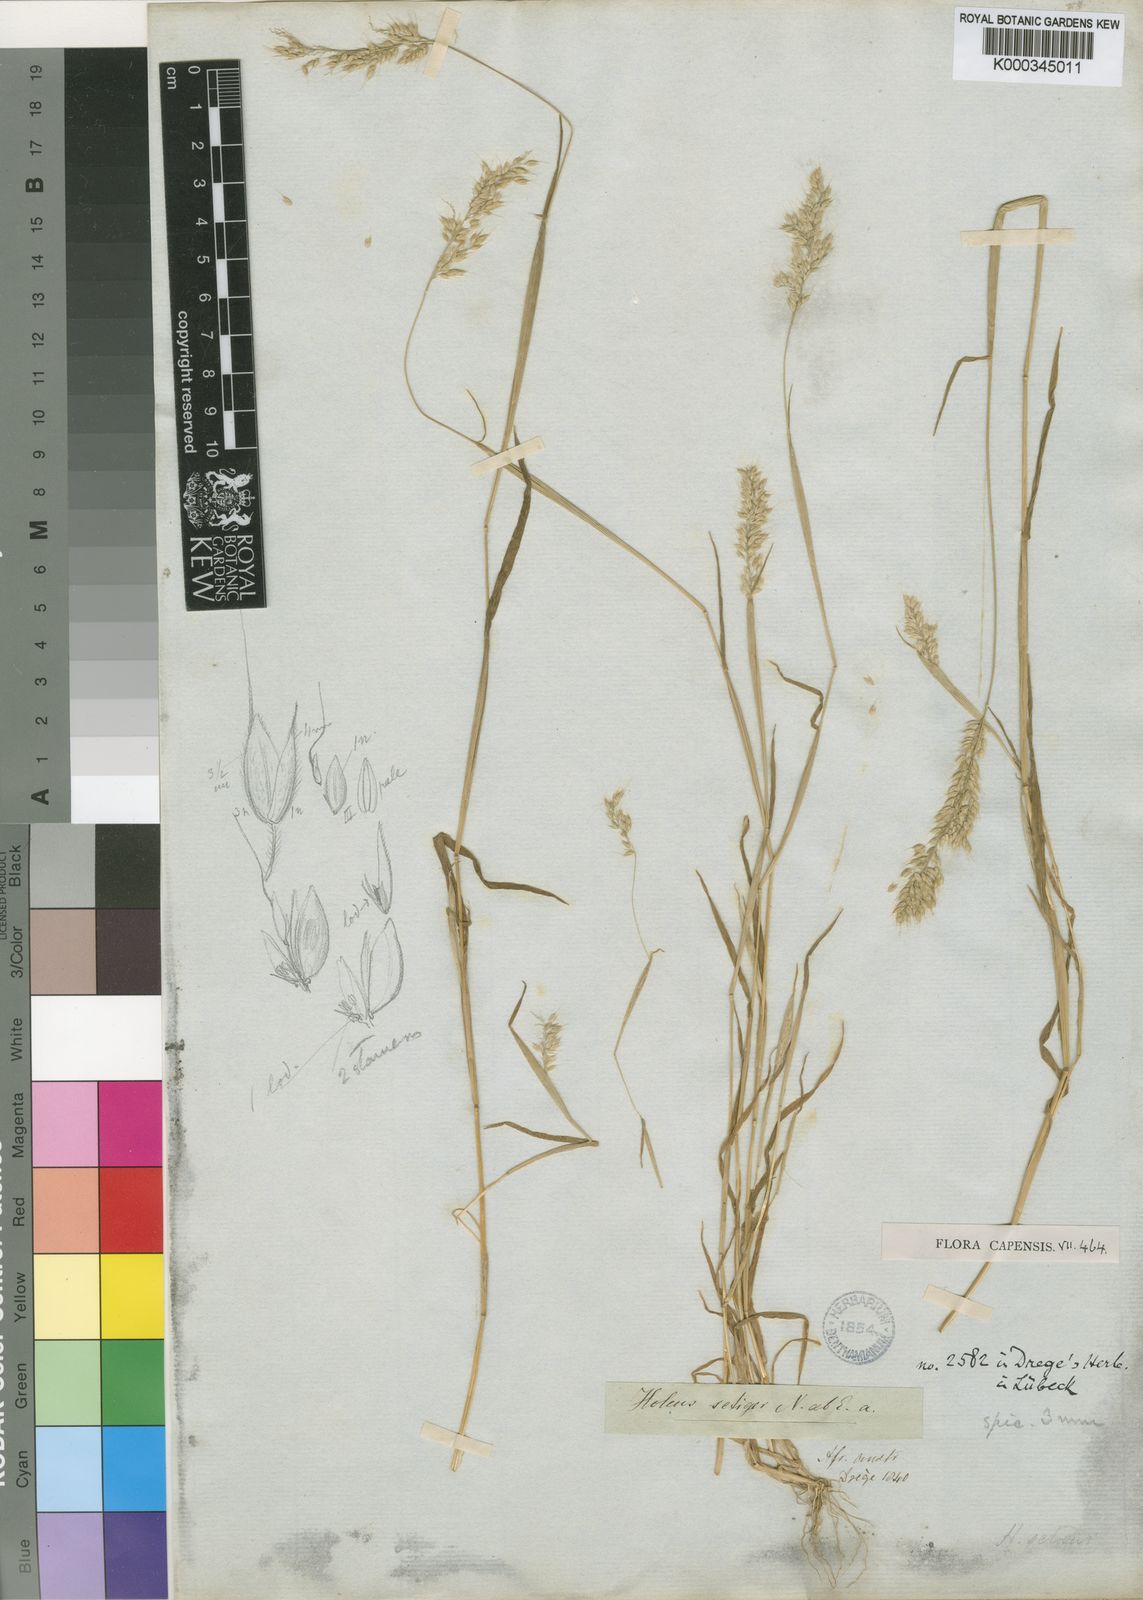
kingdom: Plantae
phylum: Tracheophyta
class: Liliopsida
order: Poales
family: Poaceae
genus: Holcus
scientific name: Holcus lanatus
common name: Yorkshire-fog
